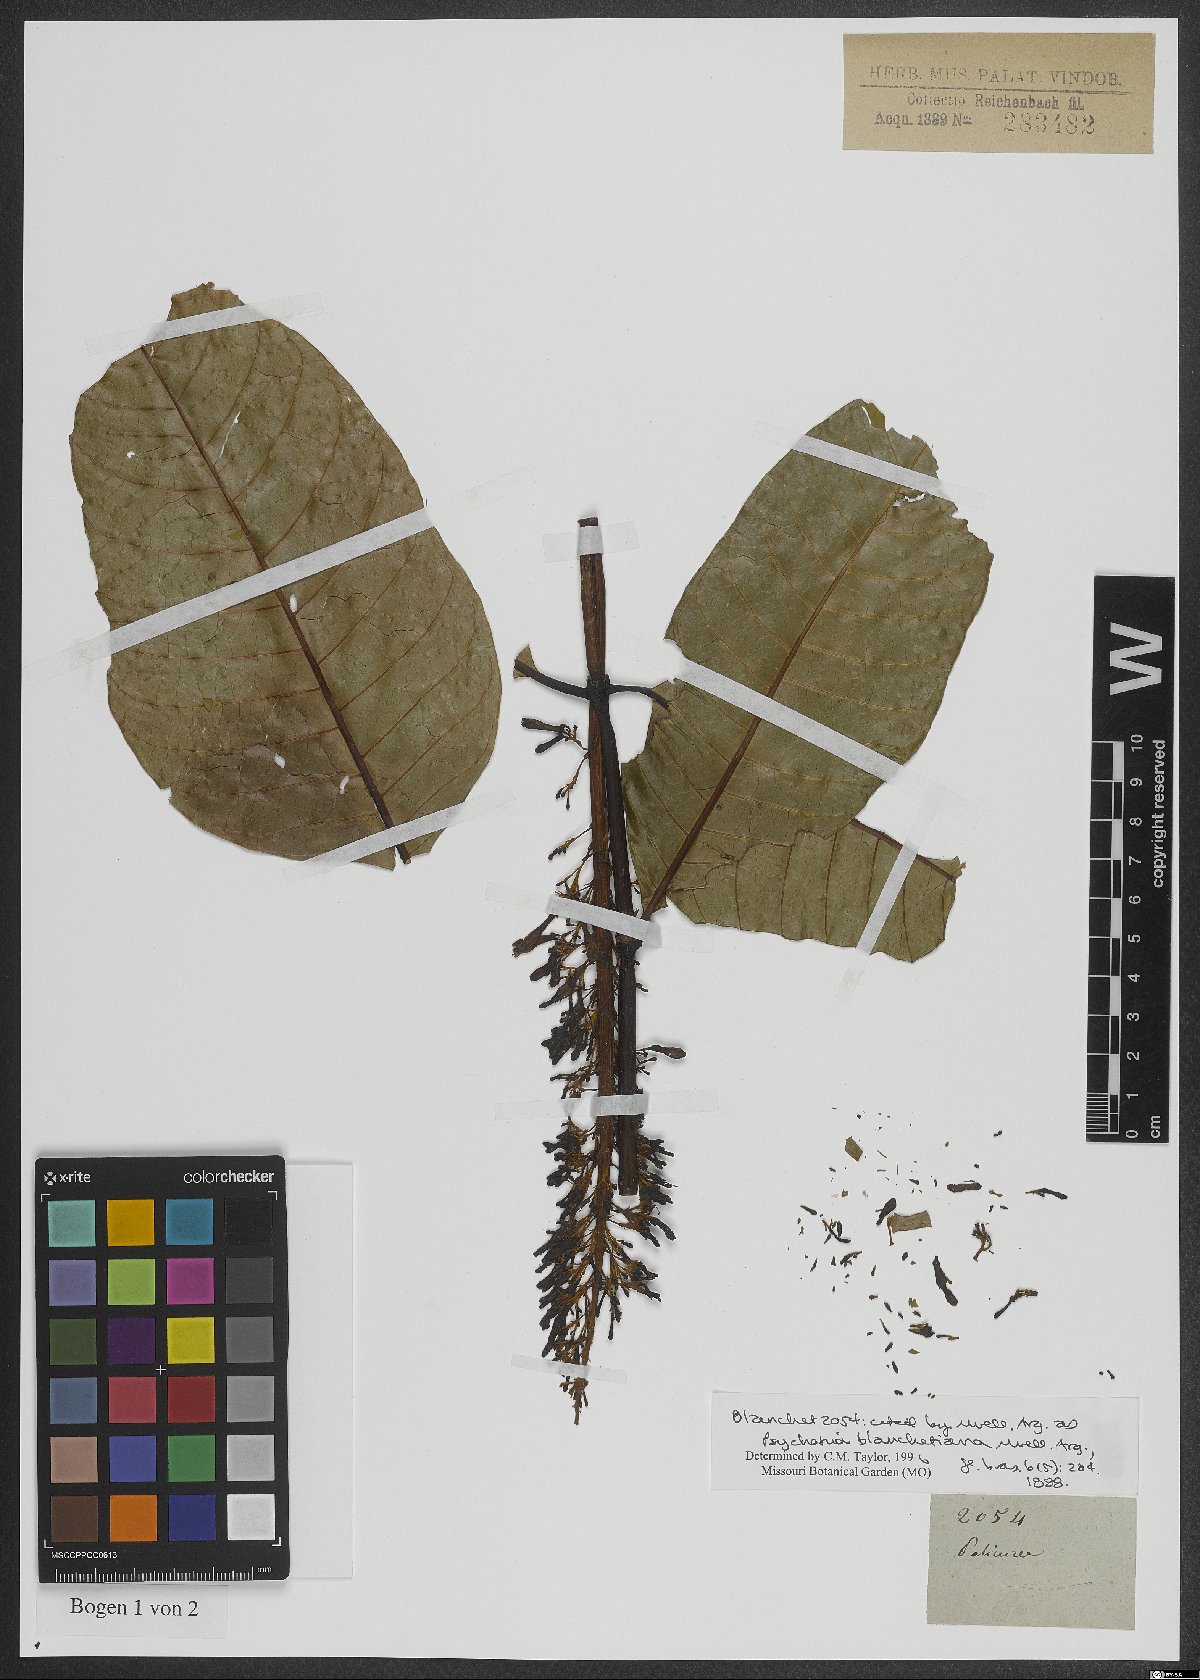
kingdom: Plantae
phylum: Tracheophyta
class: Magnoliopsida
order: Gentianales
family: Rubiaceae
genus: Palicourea
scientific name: Palicourea blanchetiana
